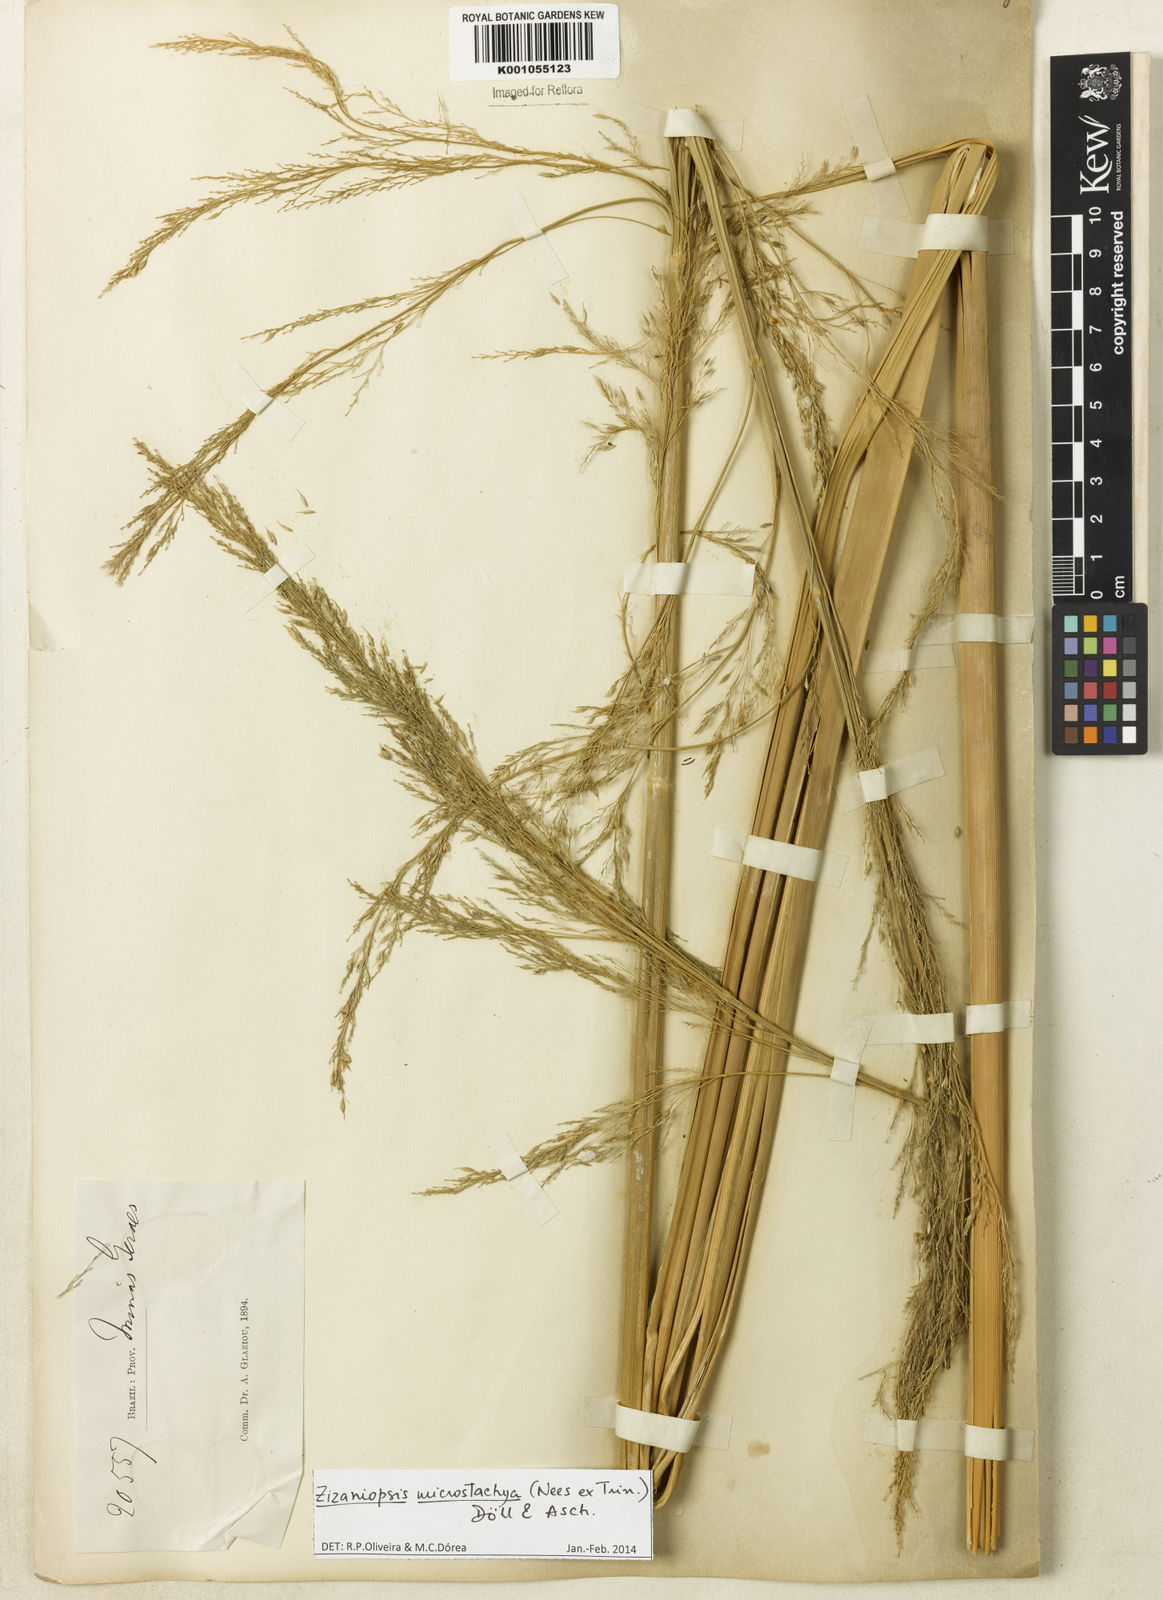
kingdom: Plantae
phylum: Tracheophyta
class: Liliopsida
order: Poales
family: Poaceae
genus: Zizaniopsis
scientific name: Zizaniopsis
